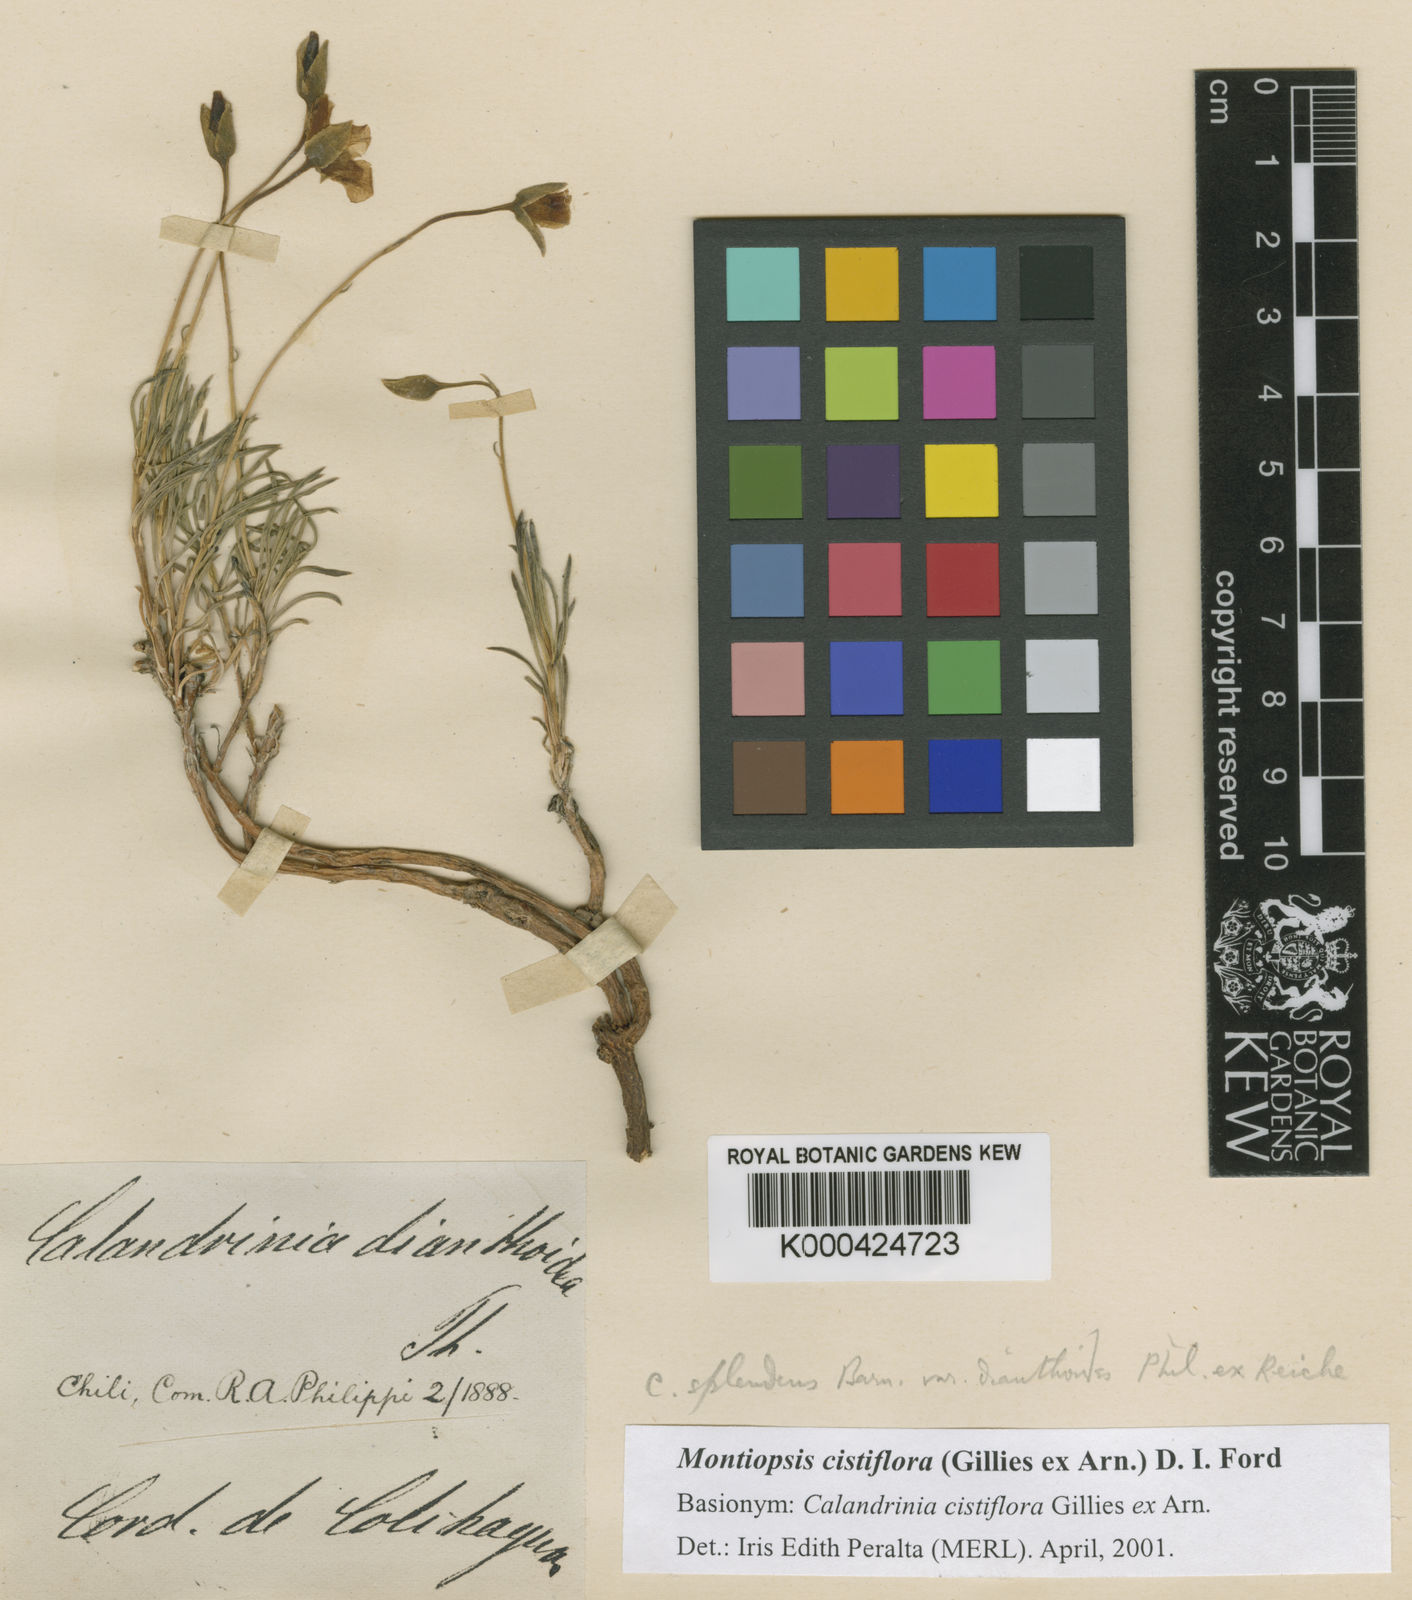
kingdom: Plantae
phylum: Tracheophyta
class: Magnoliopsida
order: Caryophyllales
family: Montiaceae
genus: Montiopsis
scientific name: Montiopsis cistiflora
